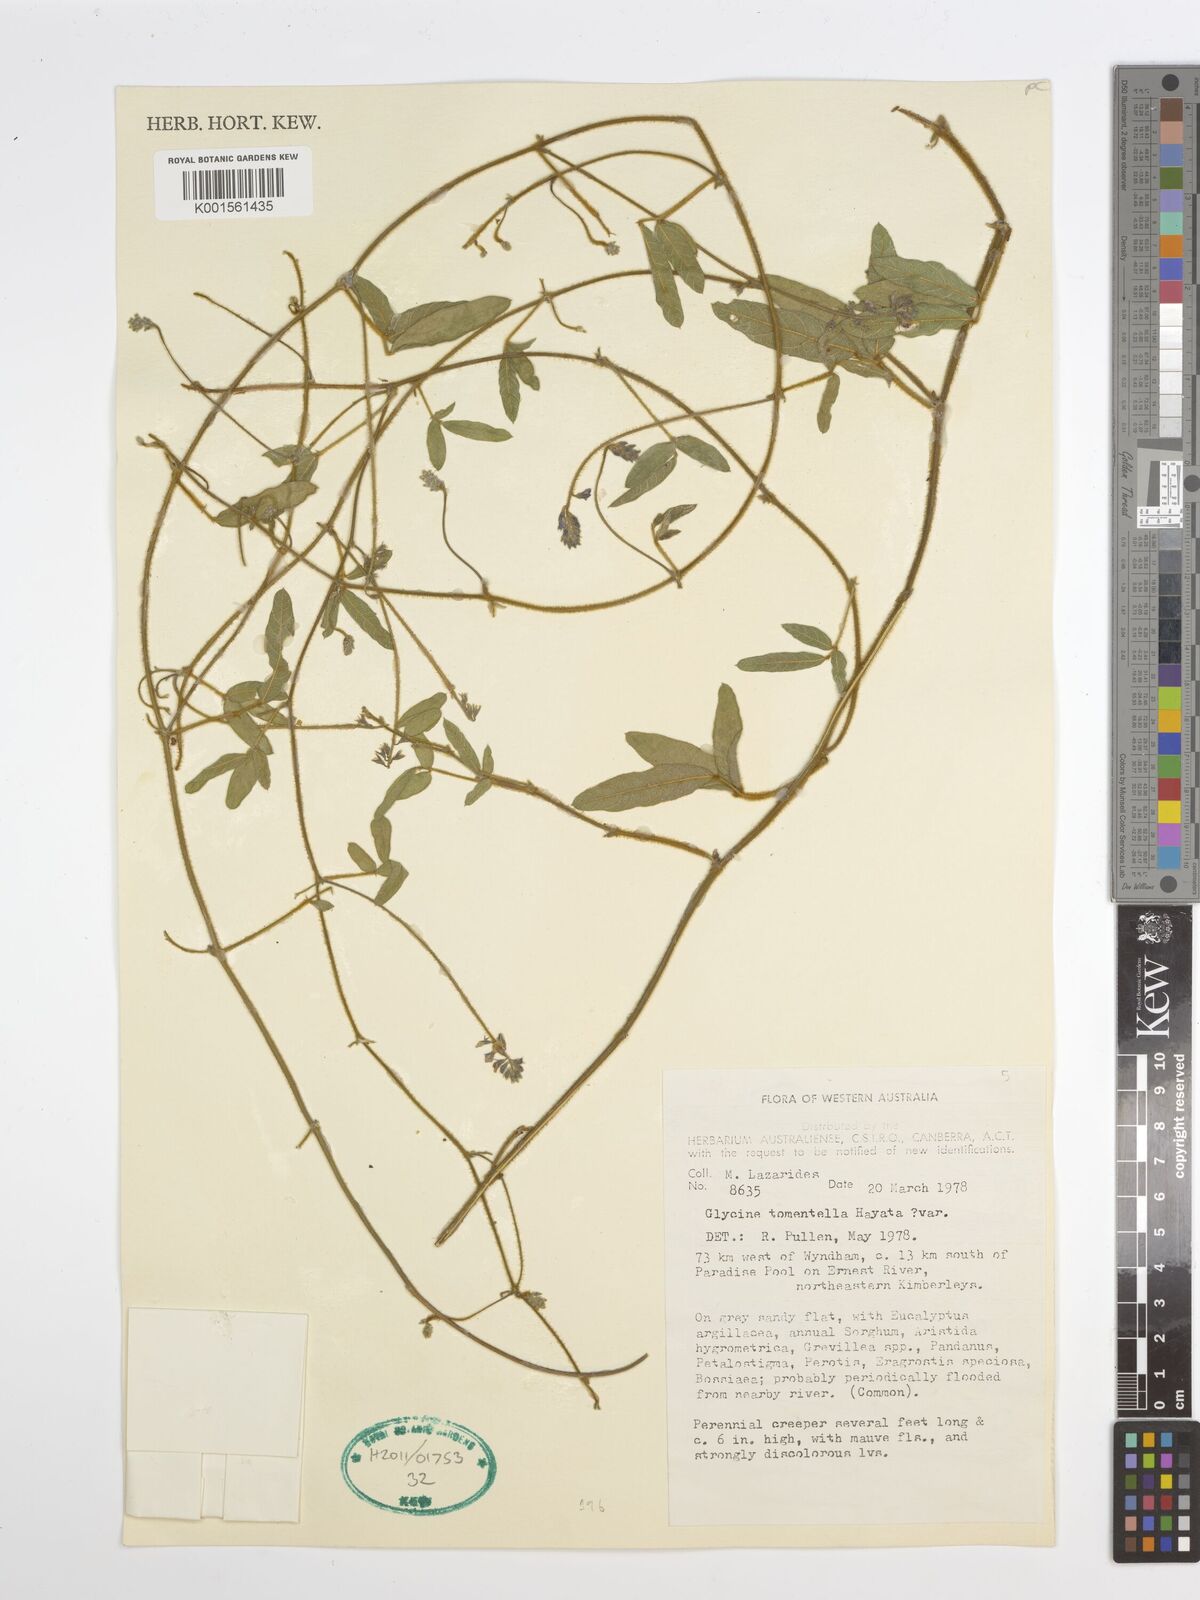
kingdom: Plantae
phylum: Tracheophyta
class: Magnoliopsida
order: Fabales
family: Fabaceae
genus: Glycine
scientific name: Glycine tomentella
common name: Hairy glycine
